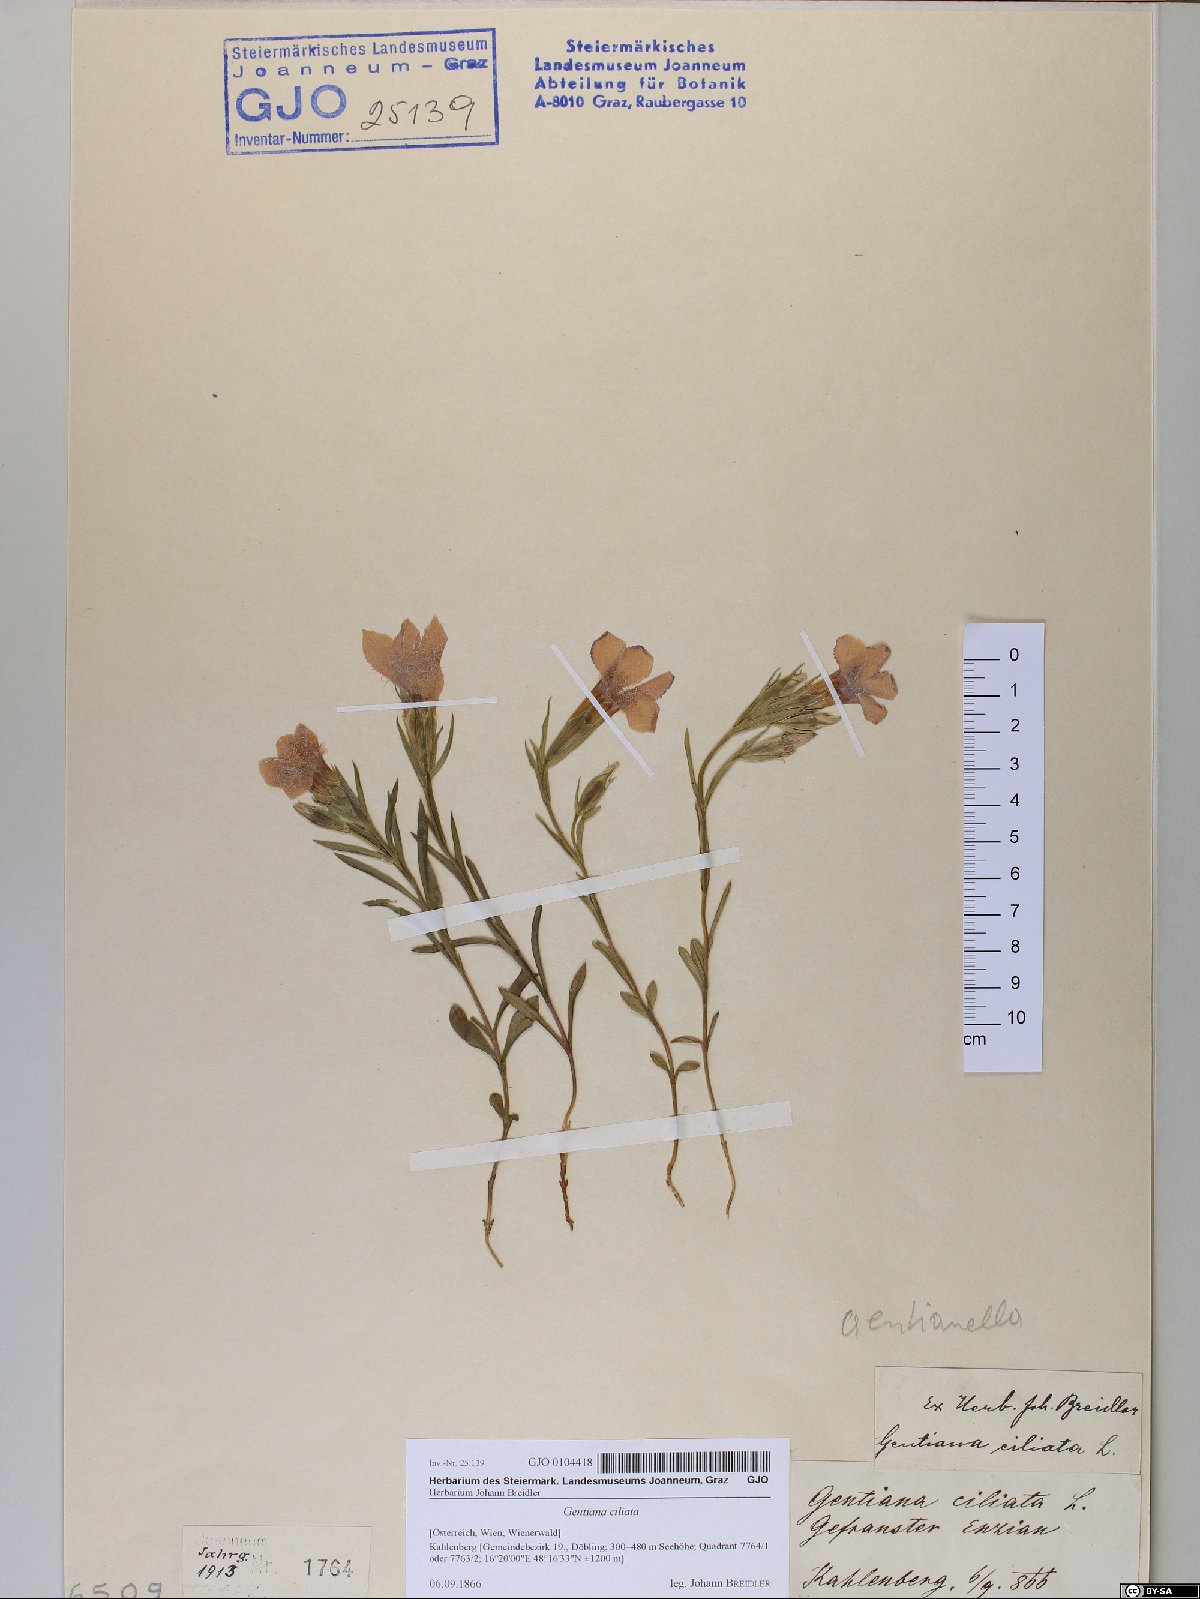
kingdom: Plantae
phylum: Tracheophyta
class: Magnoliopsida
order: Gentianales
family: Gentianaceae
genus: Gentianopsis
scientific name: Gentianopsis ciliata
